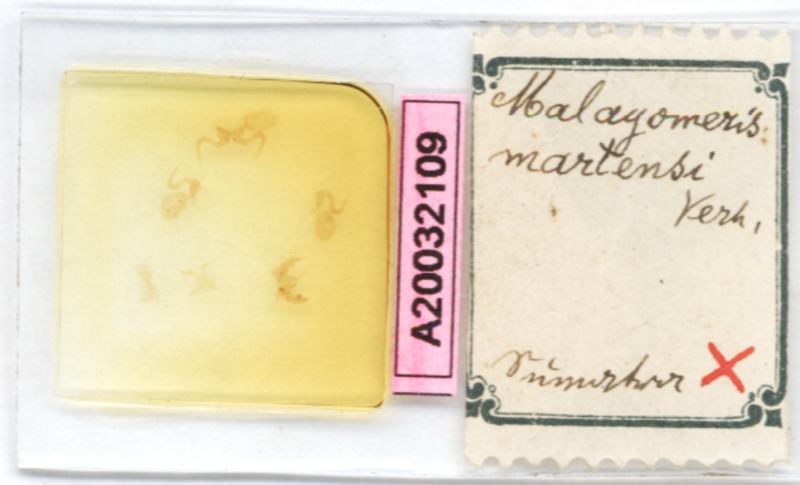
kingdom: Animalia
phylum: Arthropoda
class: Diplopoda
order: Glomerida
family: Glomeridae
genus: Malayomeris
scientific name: Malayomeris martensi
